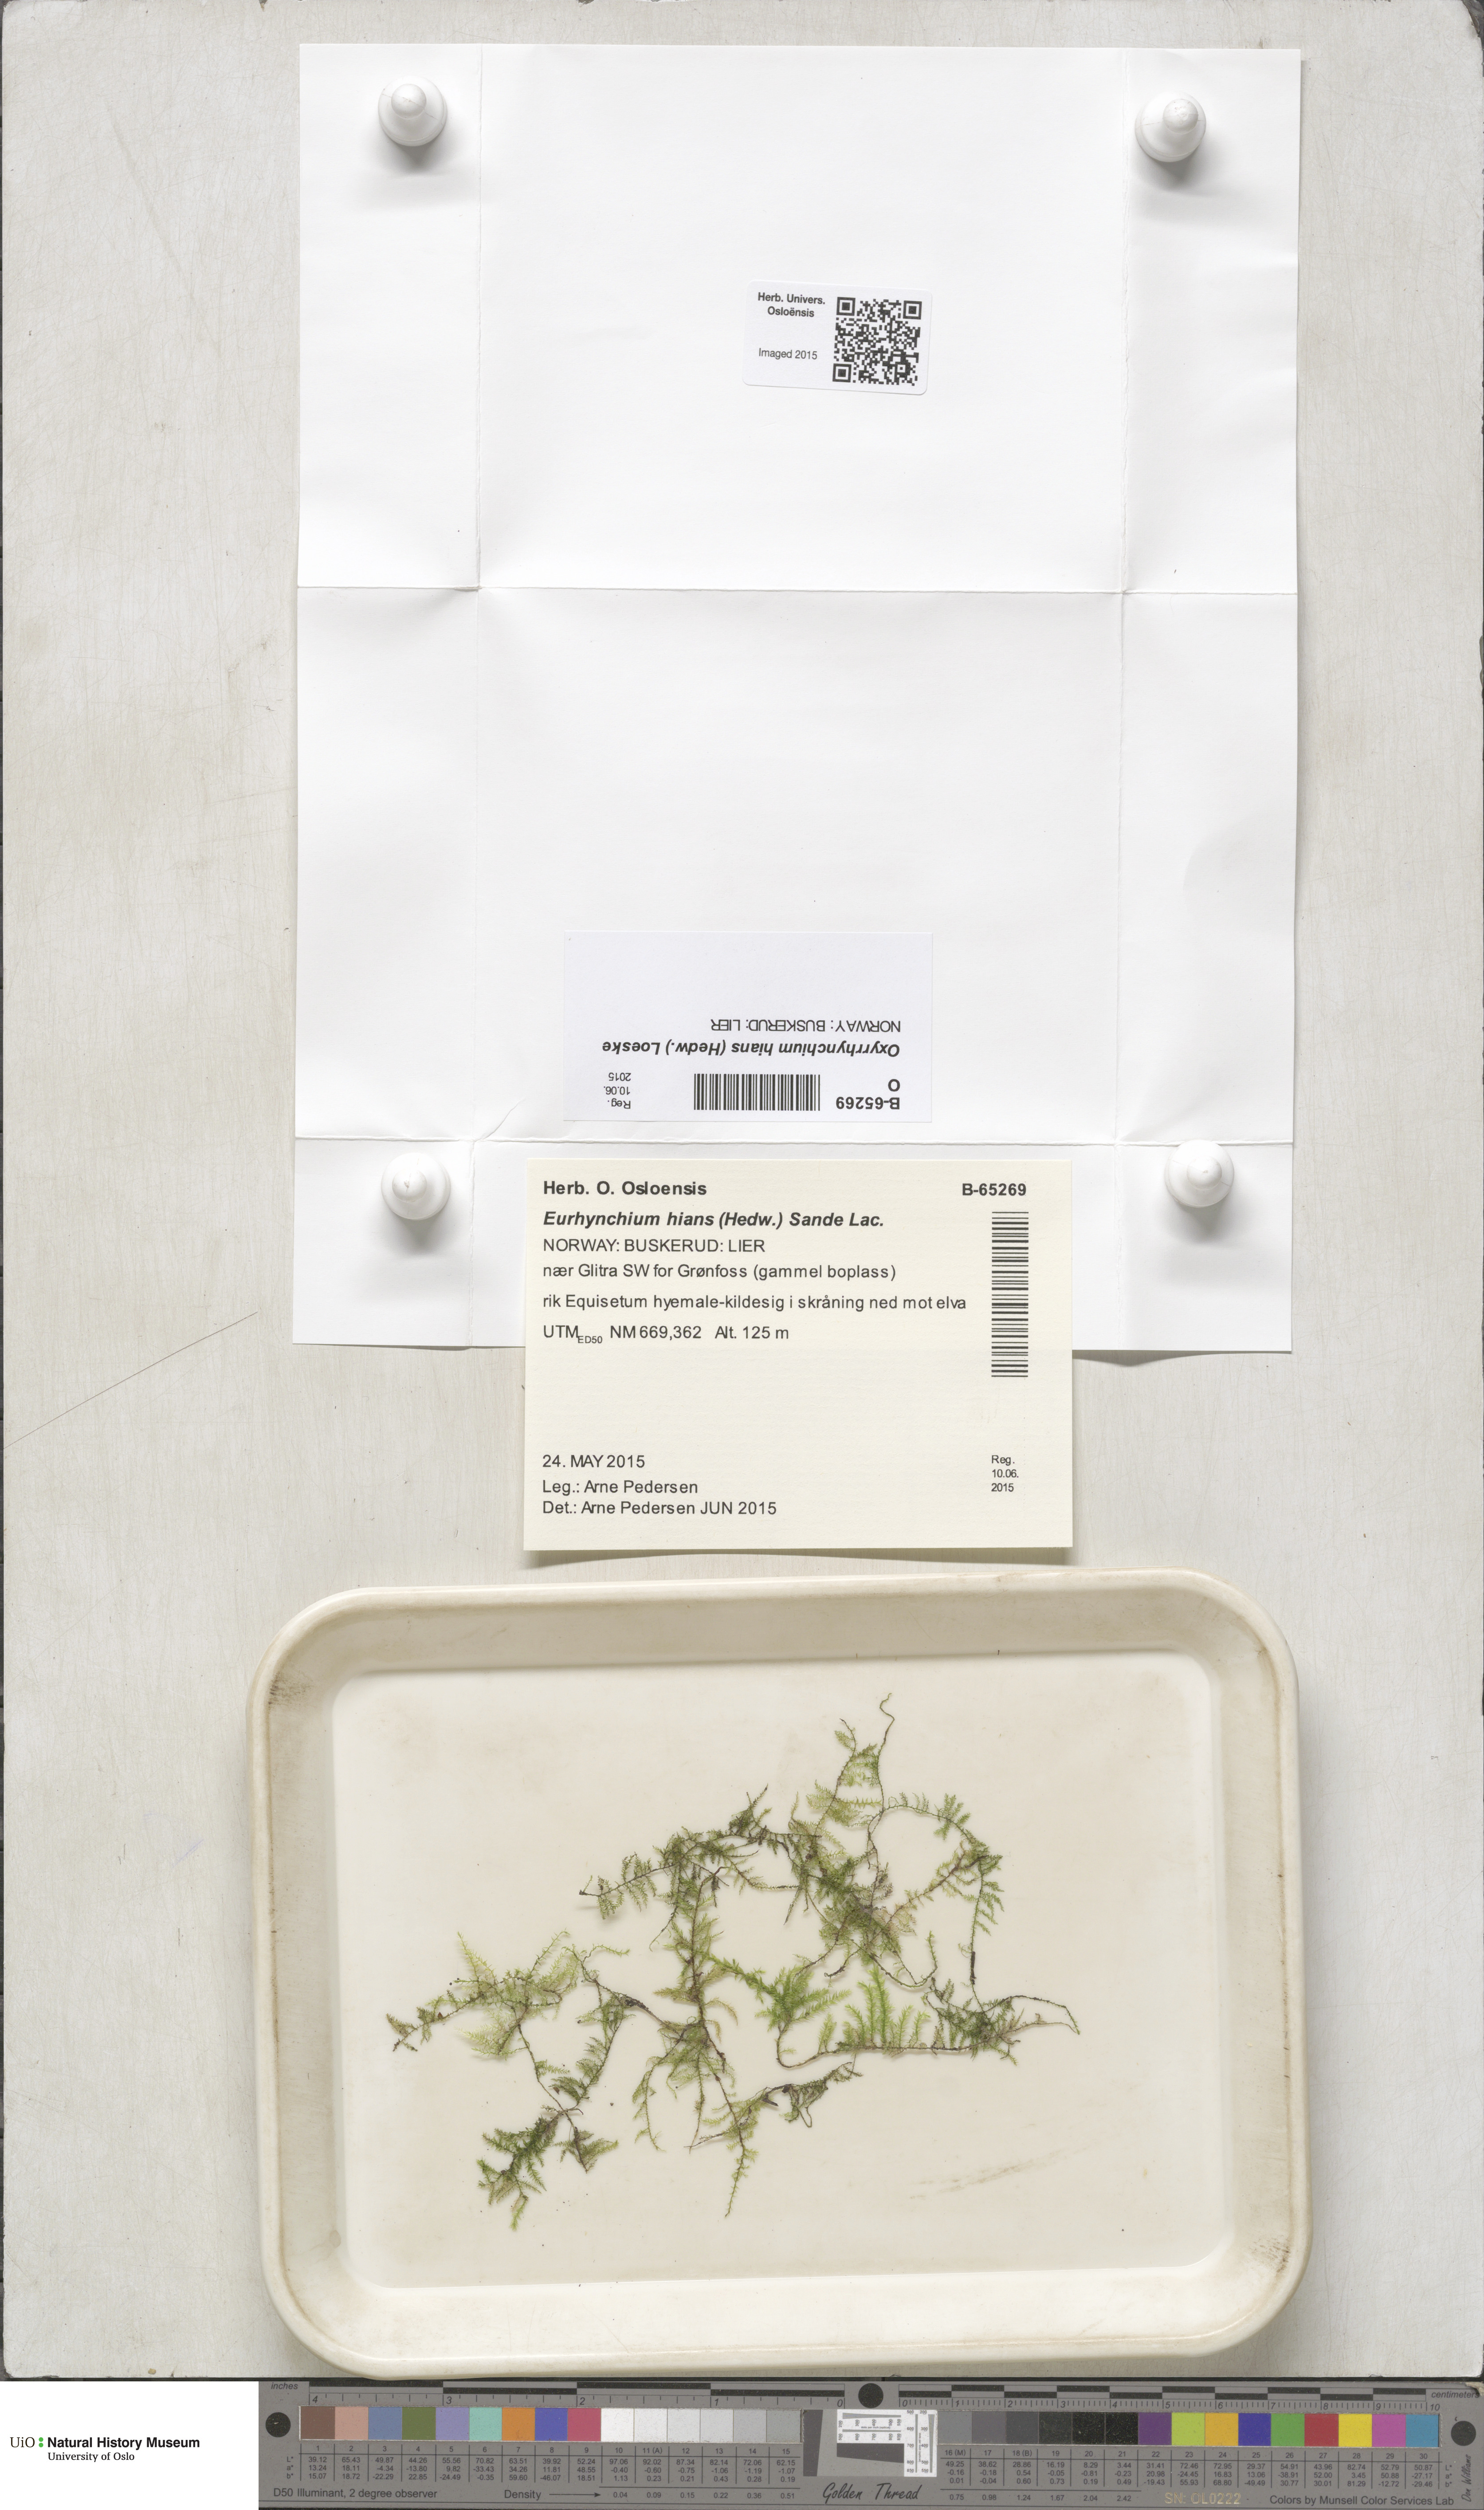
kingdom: Plantae
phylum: Bryophyta
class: Bryopsida
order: Hypnales
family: Brachytheciaceae
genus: Oxyrrhynchium
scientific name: Oxyrrhynchium hians
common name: Spreading beaked moss
